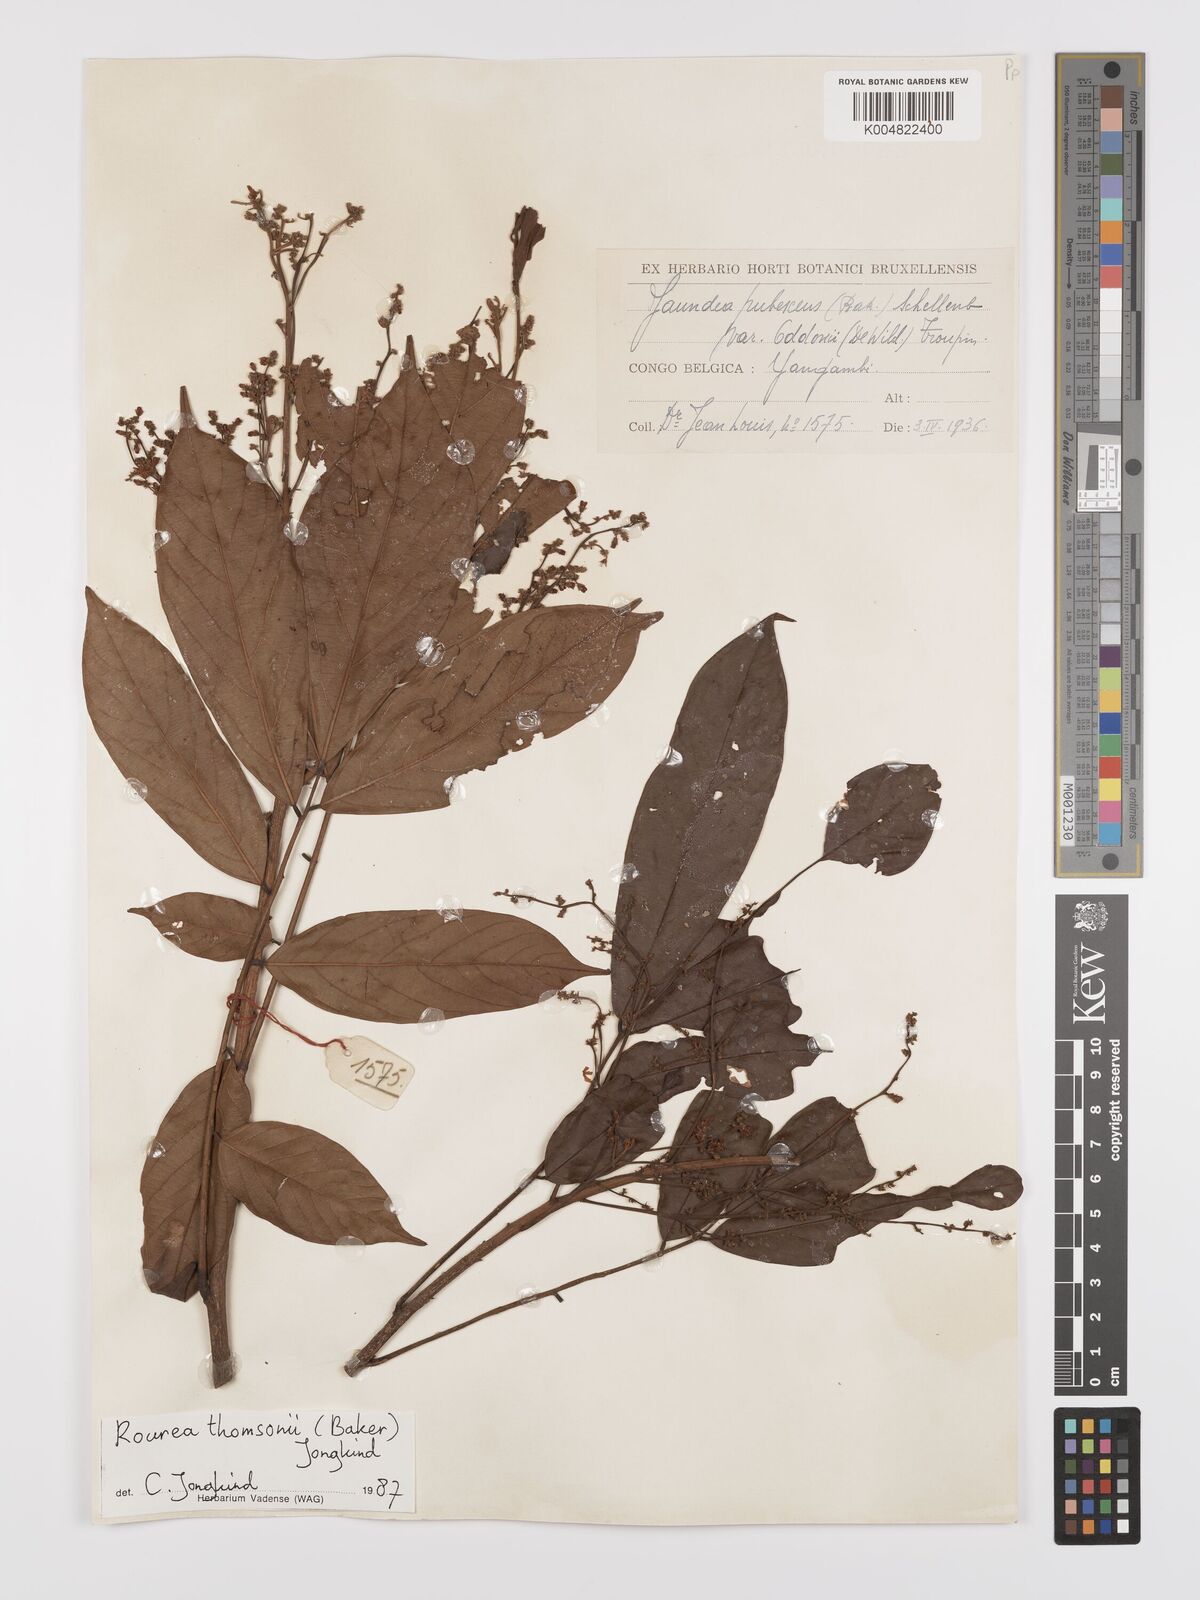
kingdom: Plantae
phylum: Tracheophyta
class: Magnoliopsida
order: Oxalidales
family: Connaraceae
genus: Rourea
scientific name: Rourea pubescens
